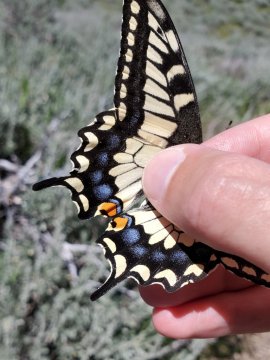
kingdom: Animalia
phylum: Arthropoda
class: Insecta
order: Lepidoptera
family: Papilionidae
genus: Papilio
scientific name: Papilio machaon
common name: Old World Swallowtail
